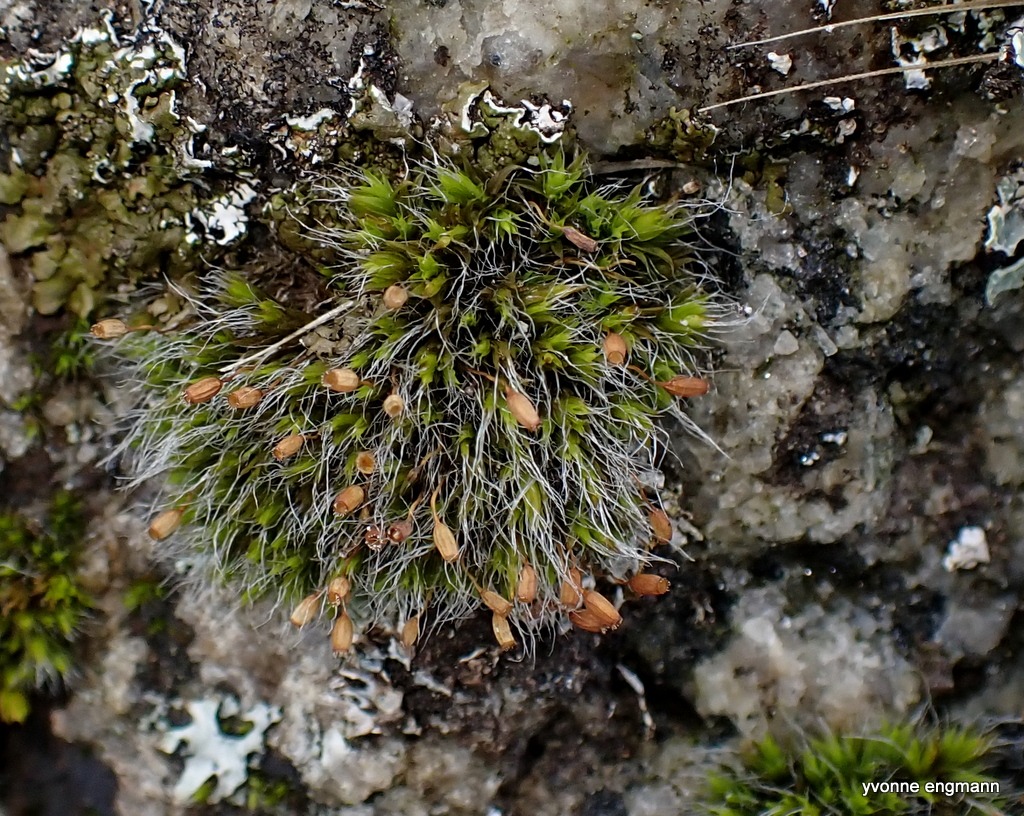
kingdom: Plantae
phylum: Bryophyta
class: Bryopsida
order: Grimmiales
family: Grimmiaceae
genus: Grimmia
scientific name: Grimmia pulvinata
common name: Pude-gråmos
